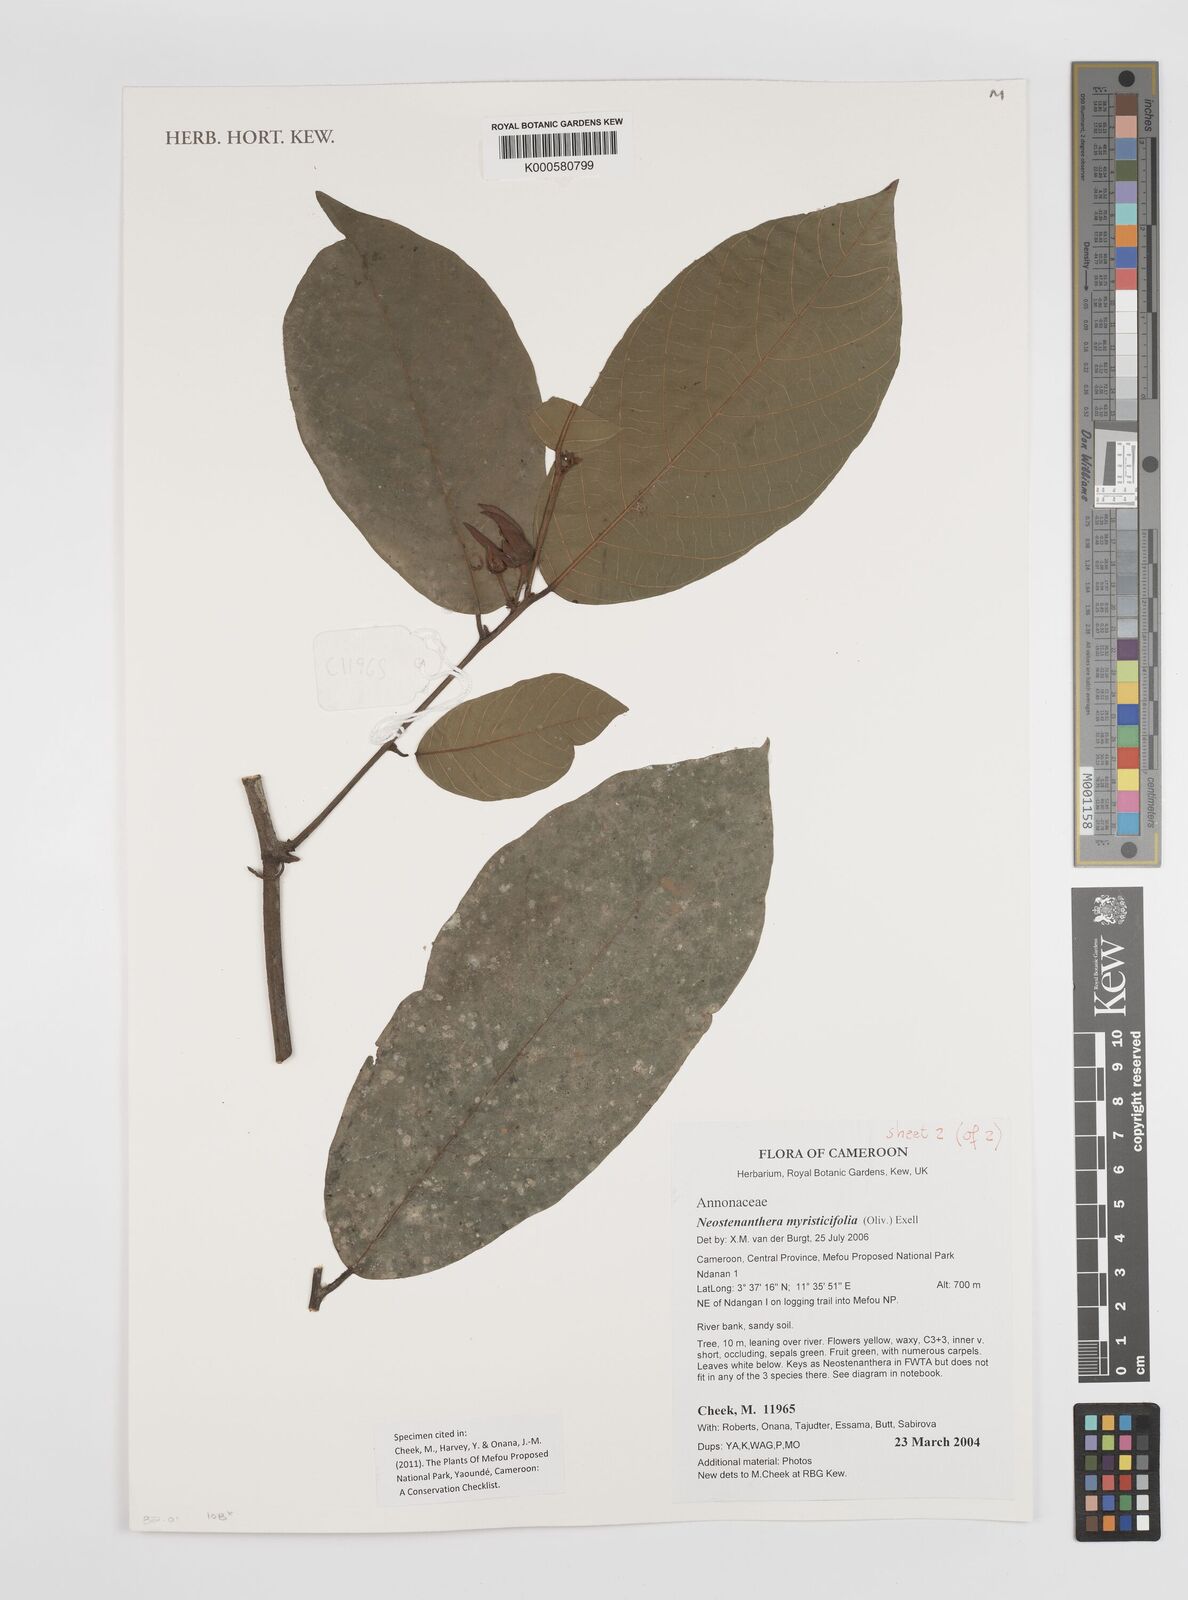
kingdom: Plantae
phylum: Tracheophyta
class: Magnoliopsida
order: Magnoliales
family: Annonaceae
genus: Neostenanthera
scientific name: Neostenanthera myristicifolia
